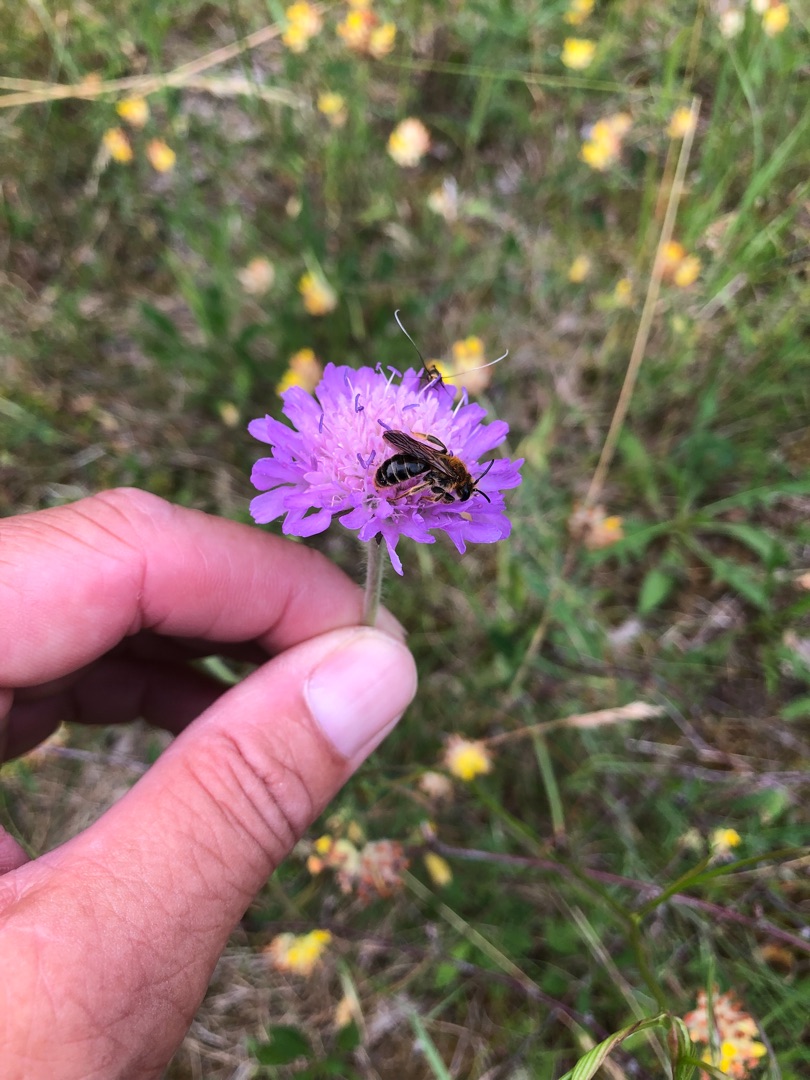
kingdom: Animalia
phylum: Arthropoda
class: Insecta
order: Hymenoptera
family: Andrenidae
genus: Andrena
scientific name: Andrena hattorfiana
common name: Blåhatjordbi
